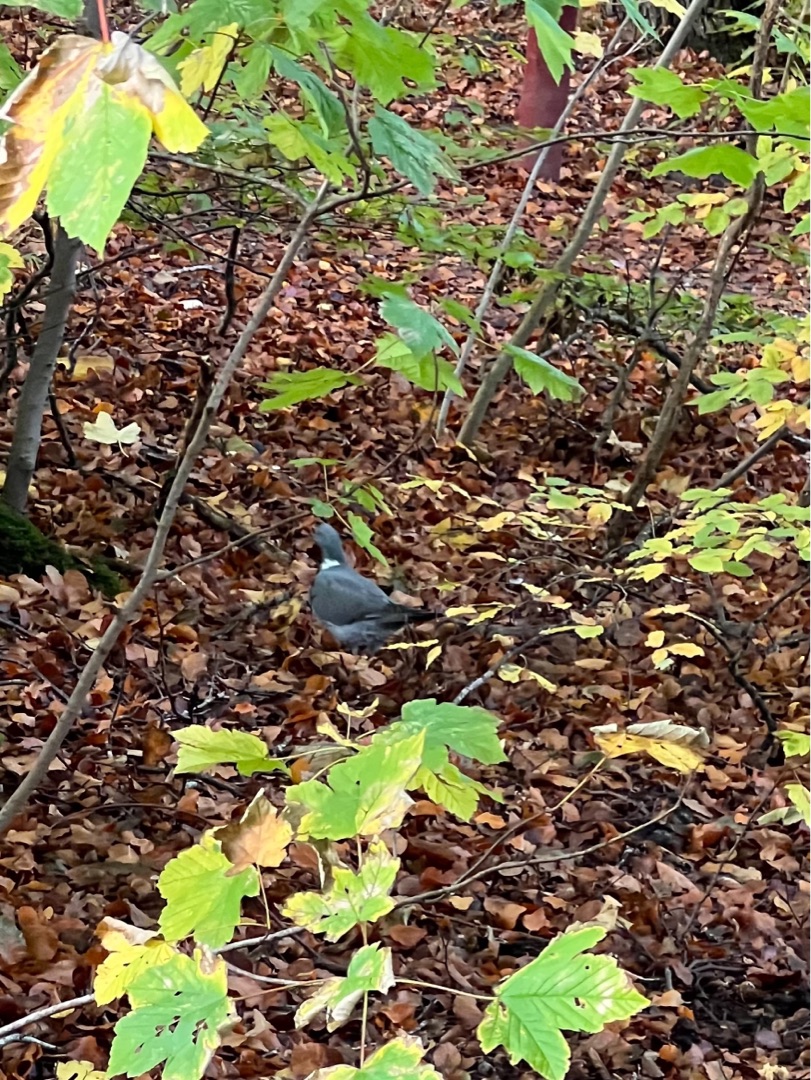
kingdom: Animalia
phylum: Chordata
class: Aves
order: Columbiformes
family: Columbidae
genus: Columba
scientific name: Columba palumbus
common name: Ringdue
